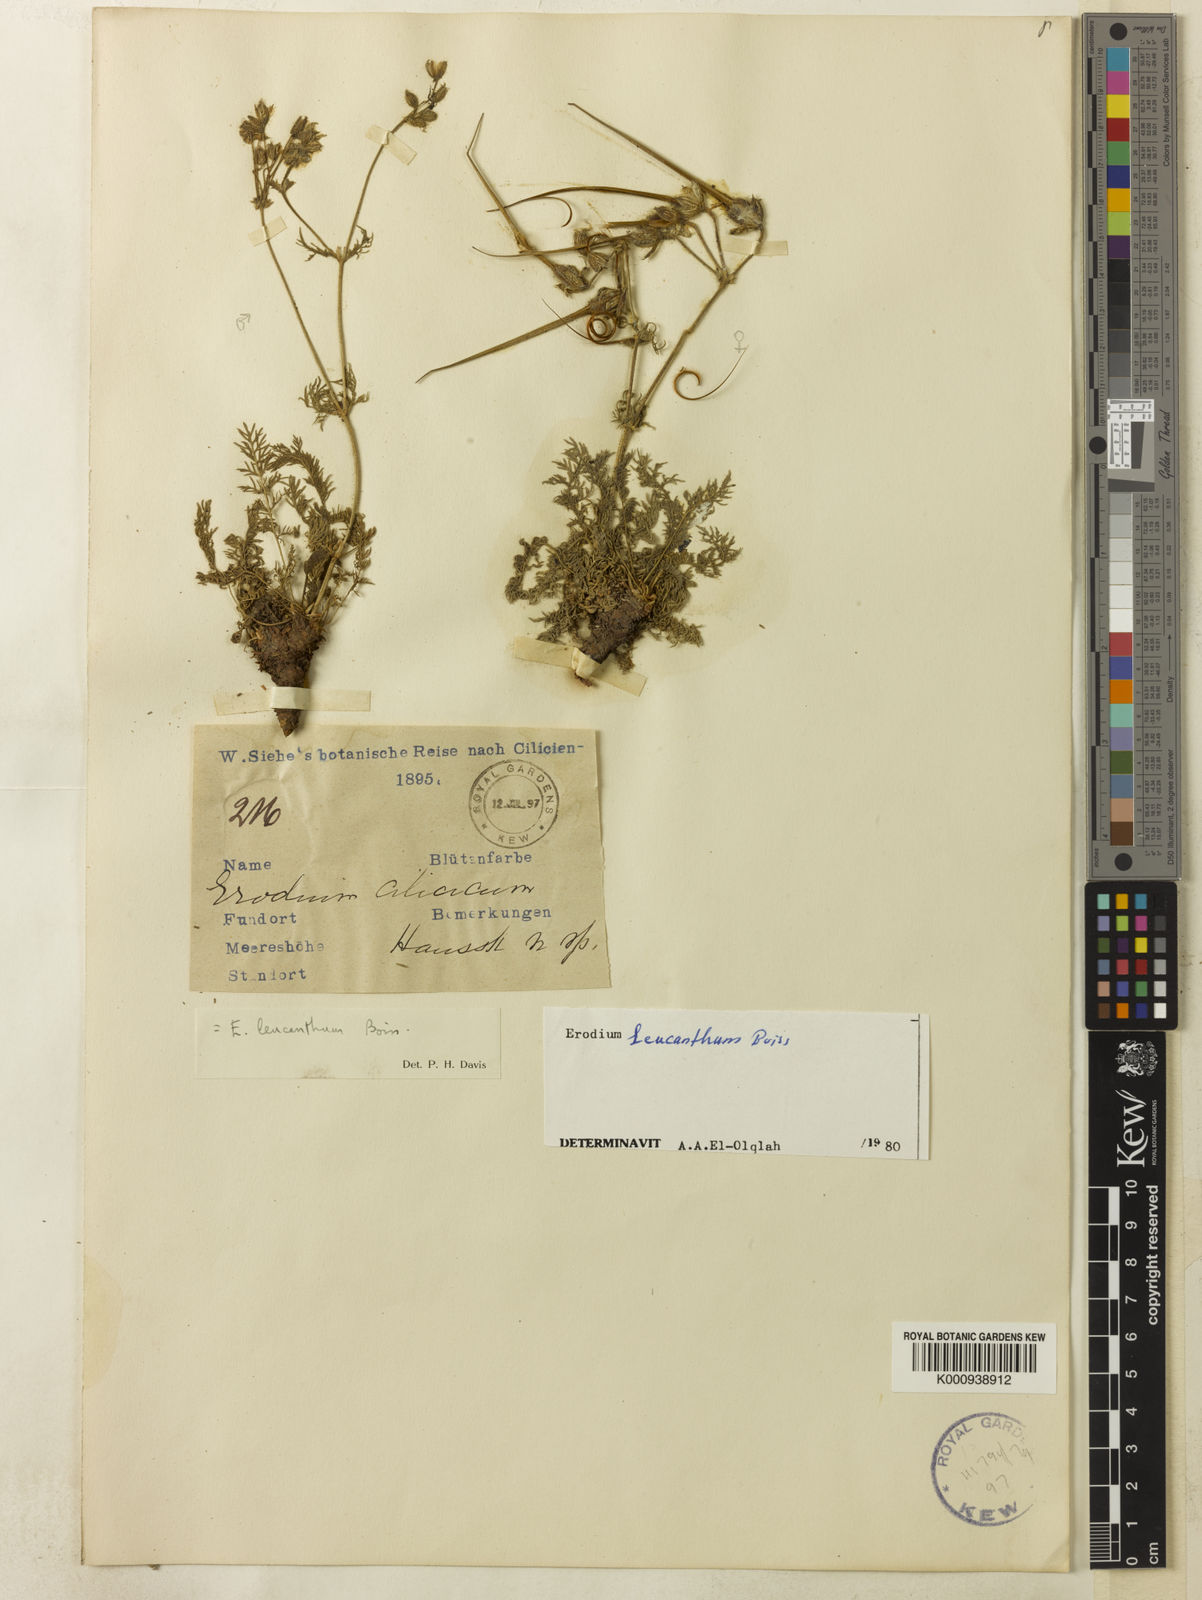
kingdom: Plantae
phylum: Tracheophyta
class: Magnoliopsida
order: Geraniales
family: Geraniaceae
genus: Erodium
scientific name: Erodium trichomanifolium
